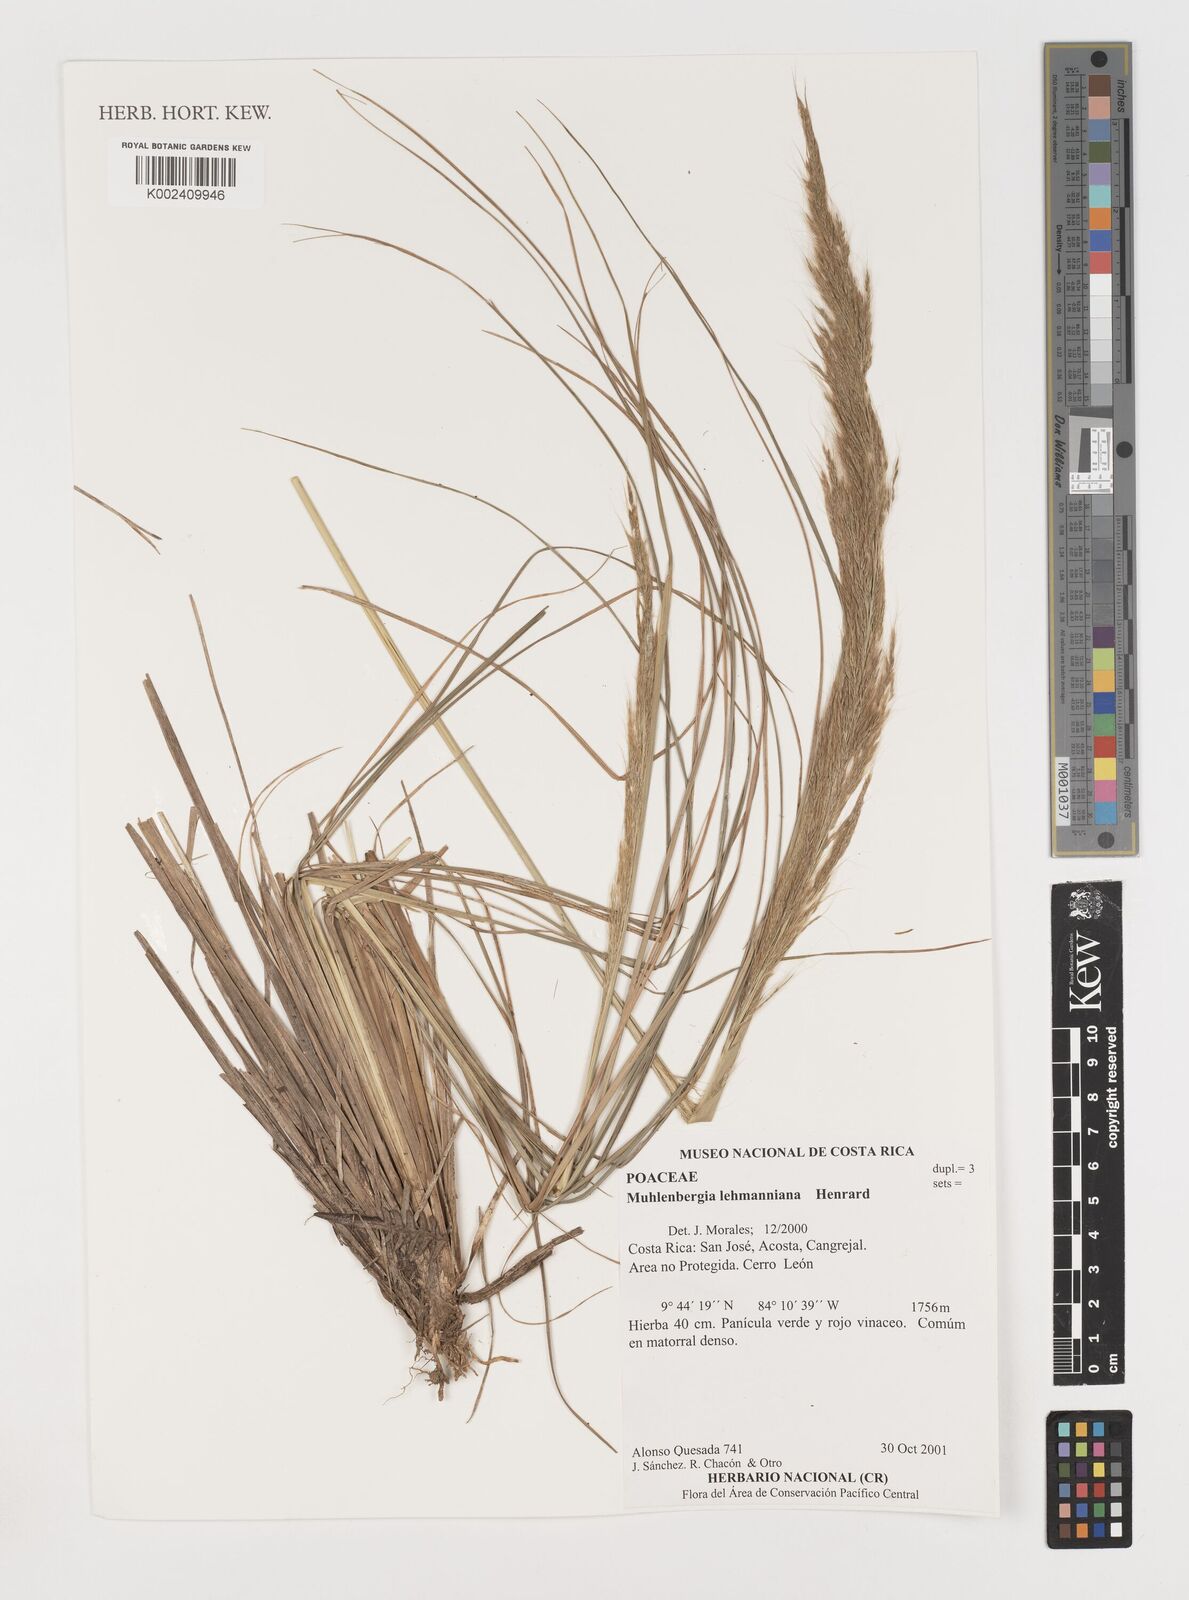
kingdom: Plantae
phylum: Tracheophyta
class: Liliopsida
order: Poales
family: Poaceae
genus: Muhlenbergia
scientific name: Muhlenbergia lehmanniana
